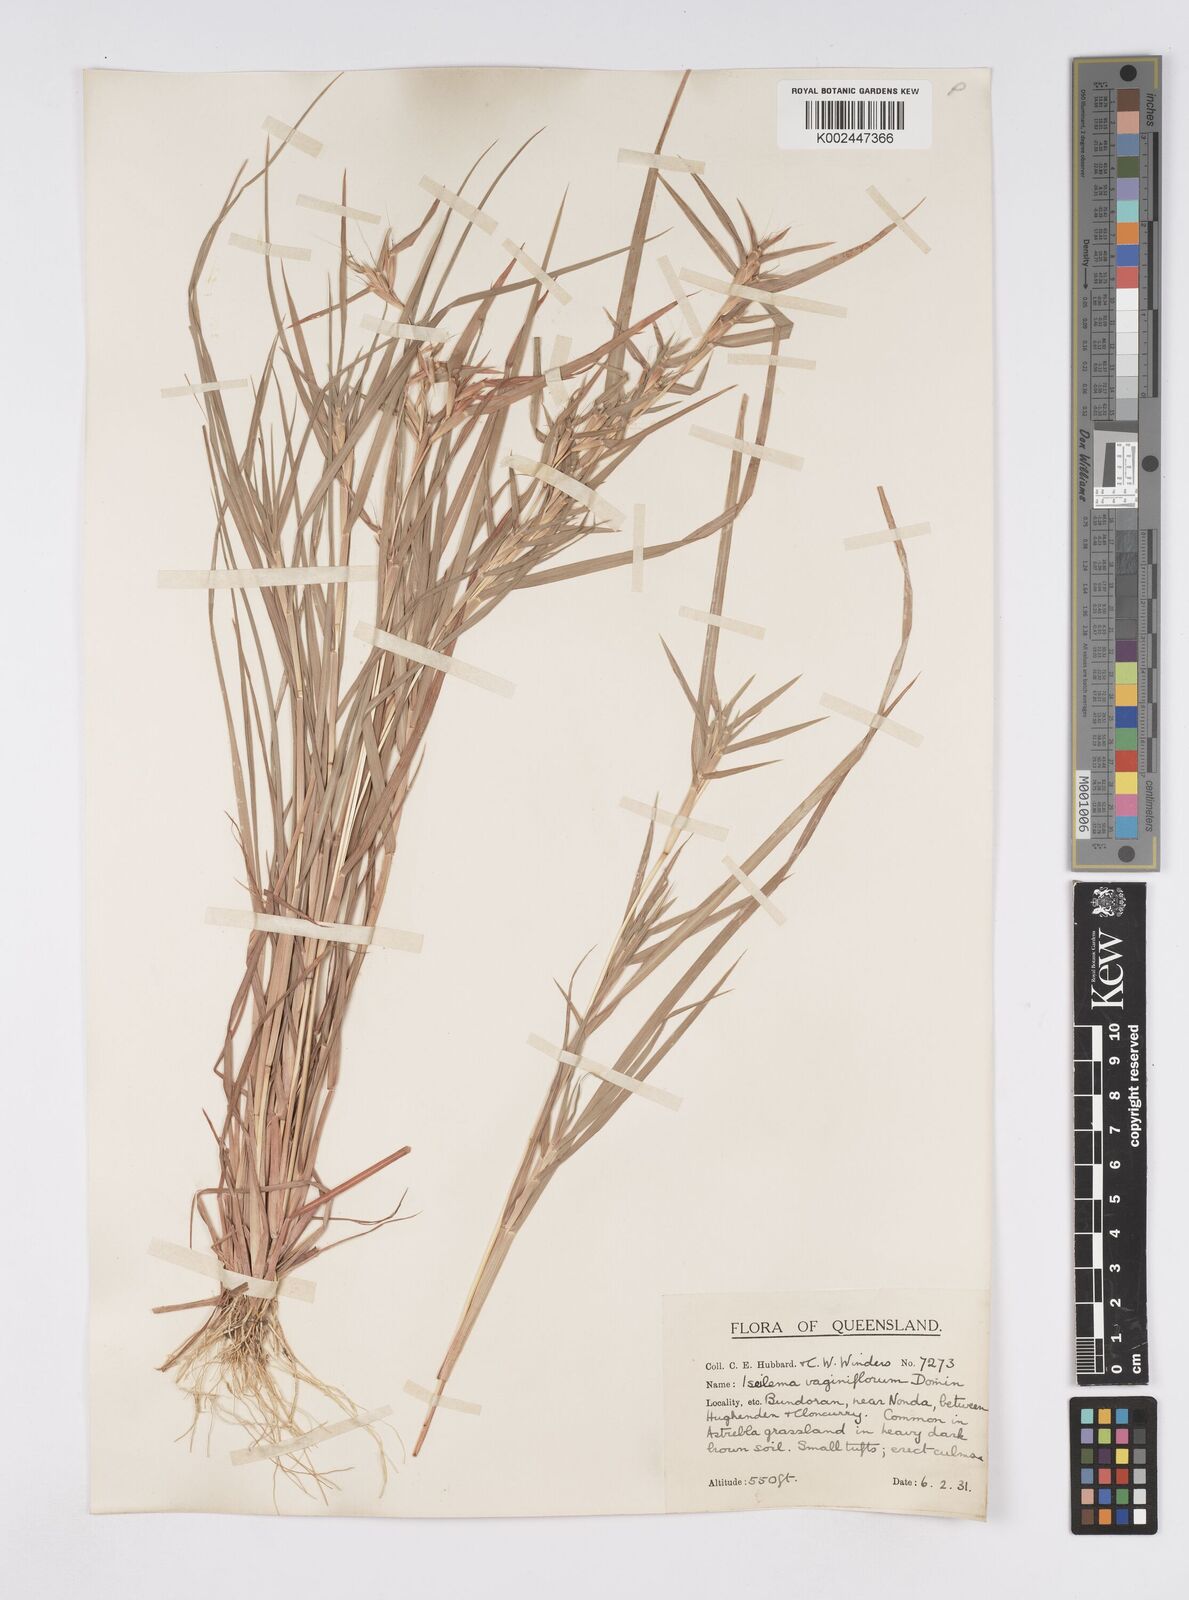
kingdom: Plantae
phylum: Tracheophyta
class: Liliopsida
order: Poales
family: Poaceae
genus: Iseilema
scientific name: Iseilema vaginiflorum
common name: Red flinders grass
